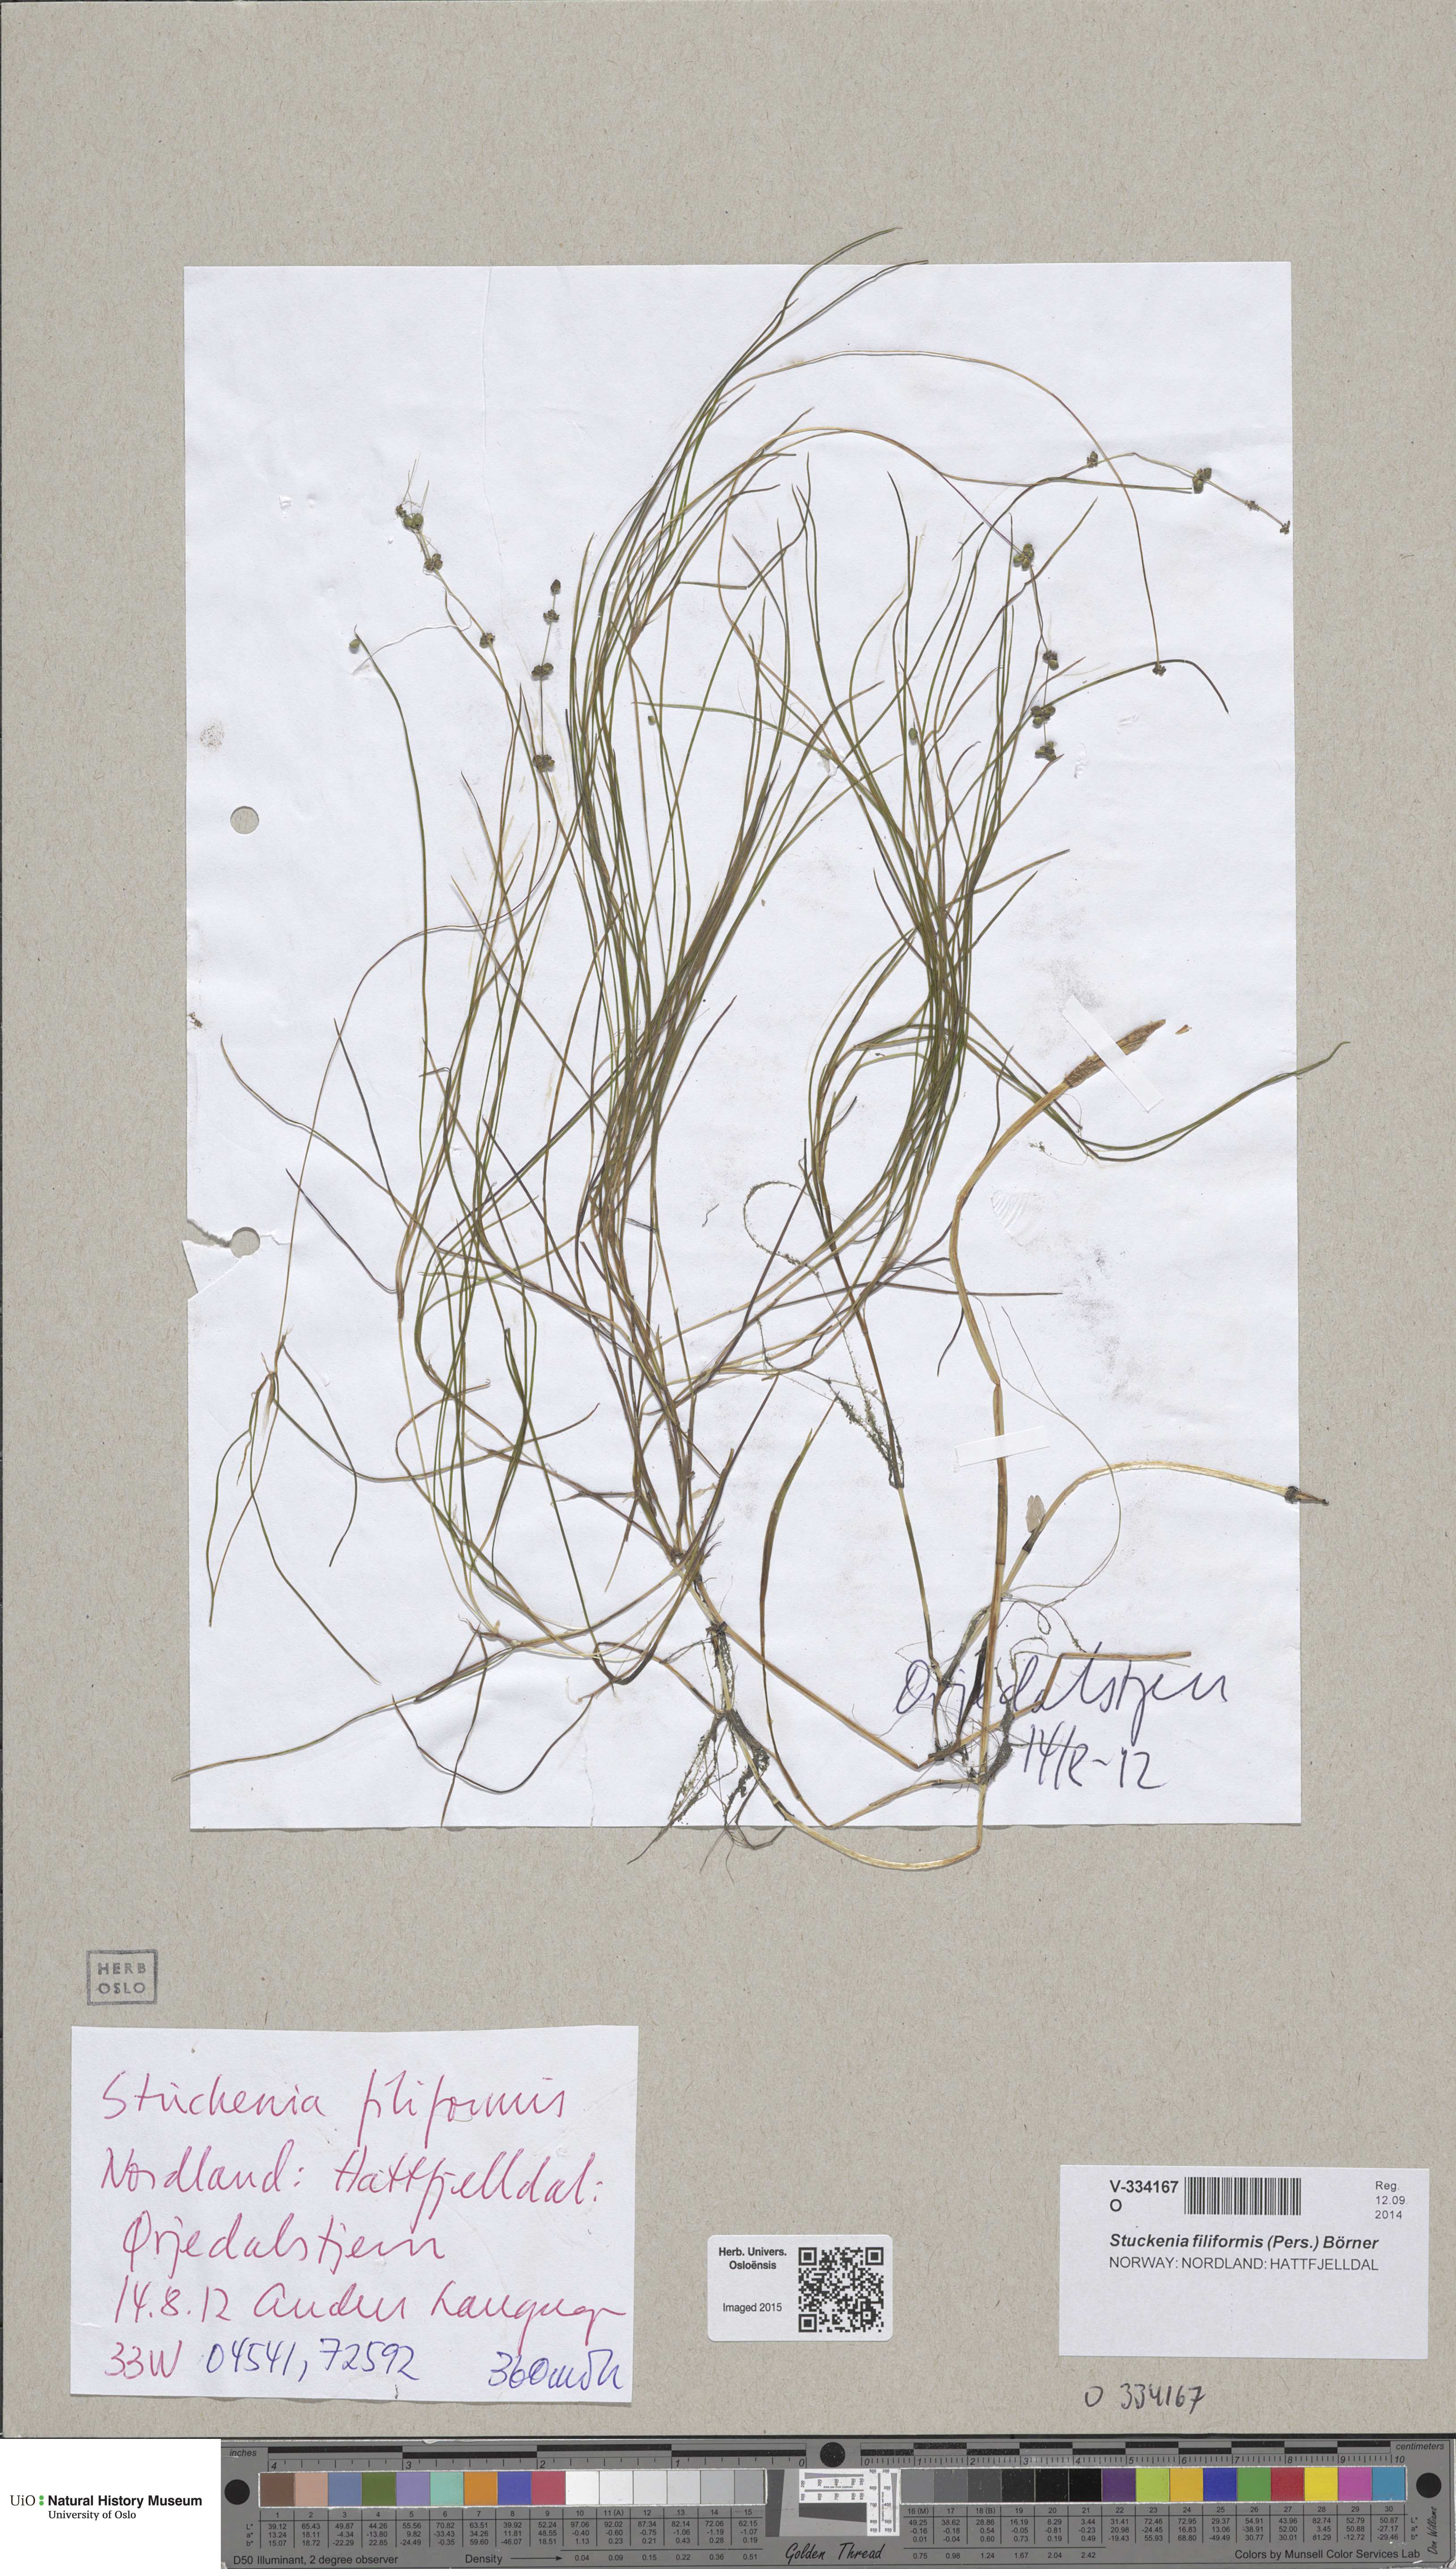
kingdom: Plantae
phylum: Tracheophyta
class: Liliopsida
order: Alismatales
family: Potamogetonaceae
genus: Stuckenia
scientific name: Stuckenia filiformis
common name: Alpine thread-leaved pondweed
